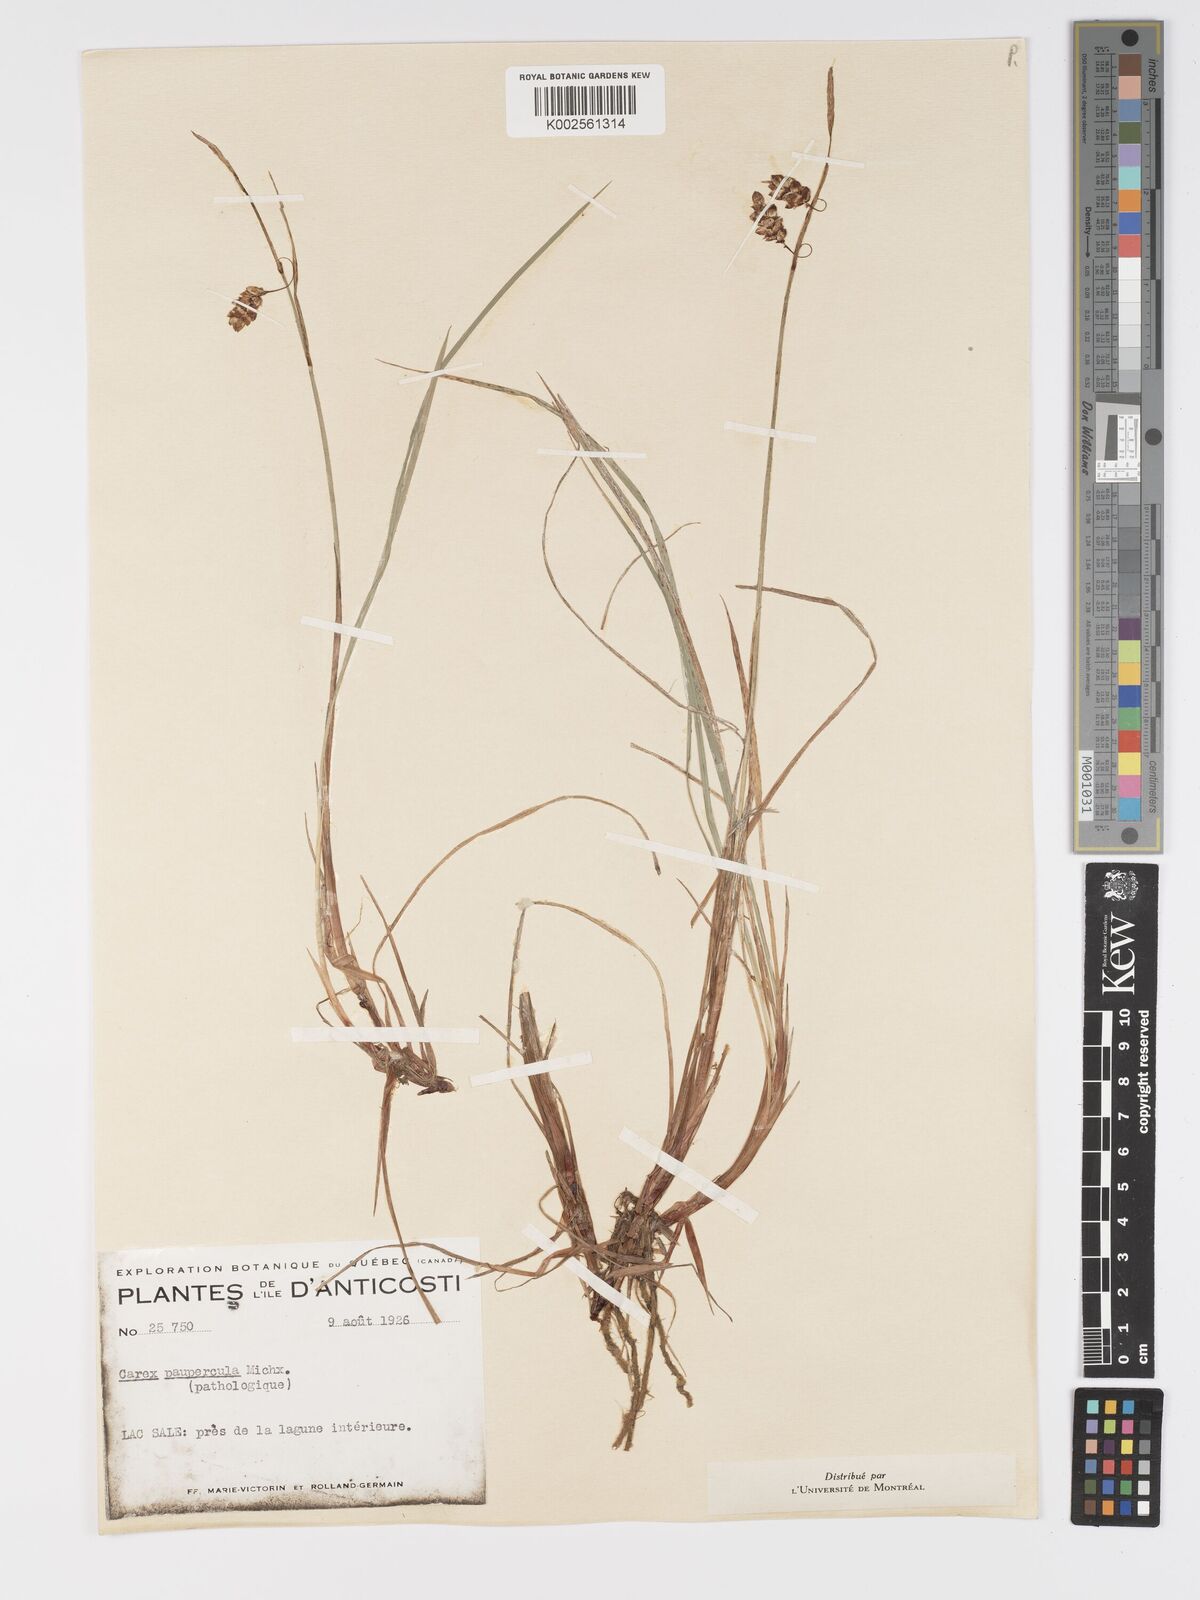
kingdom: Plantae
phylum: Tracheophyta
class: Liliopsida
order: Poales
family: Cyperaceae
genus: Carex
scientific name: Carex magellanica
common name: Bog sedge
